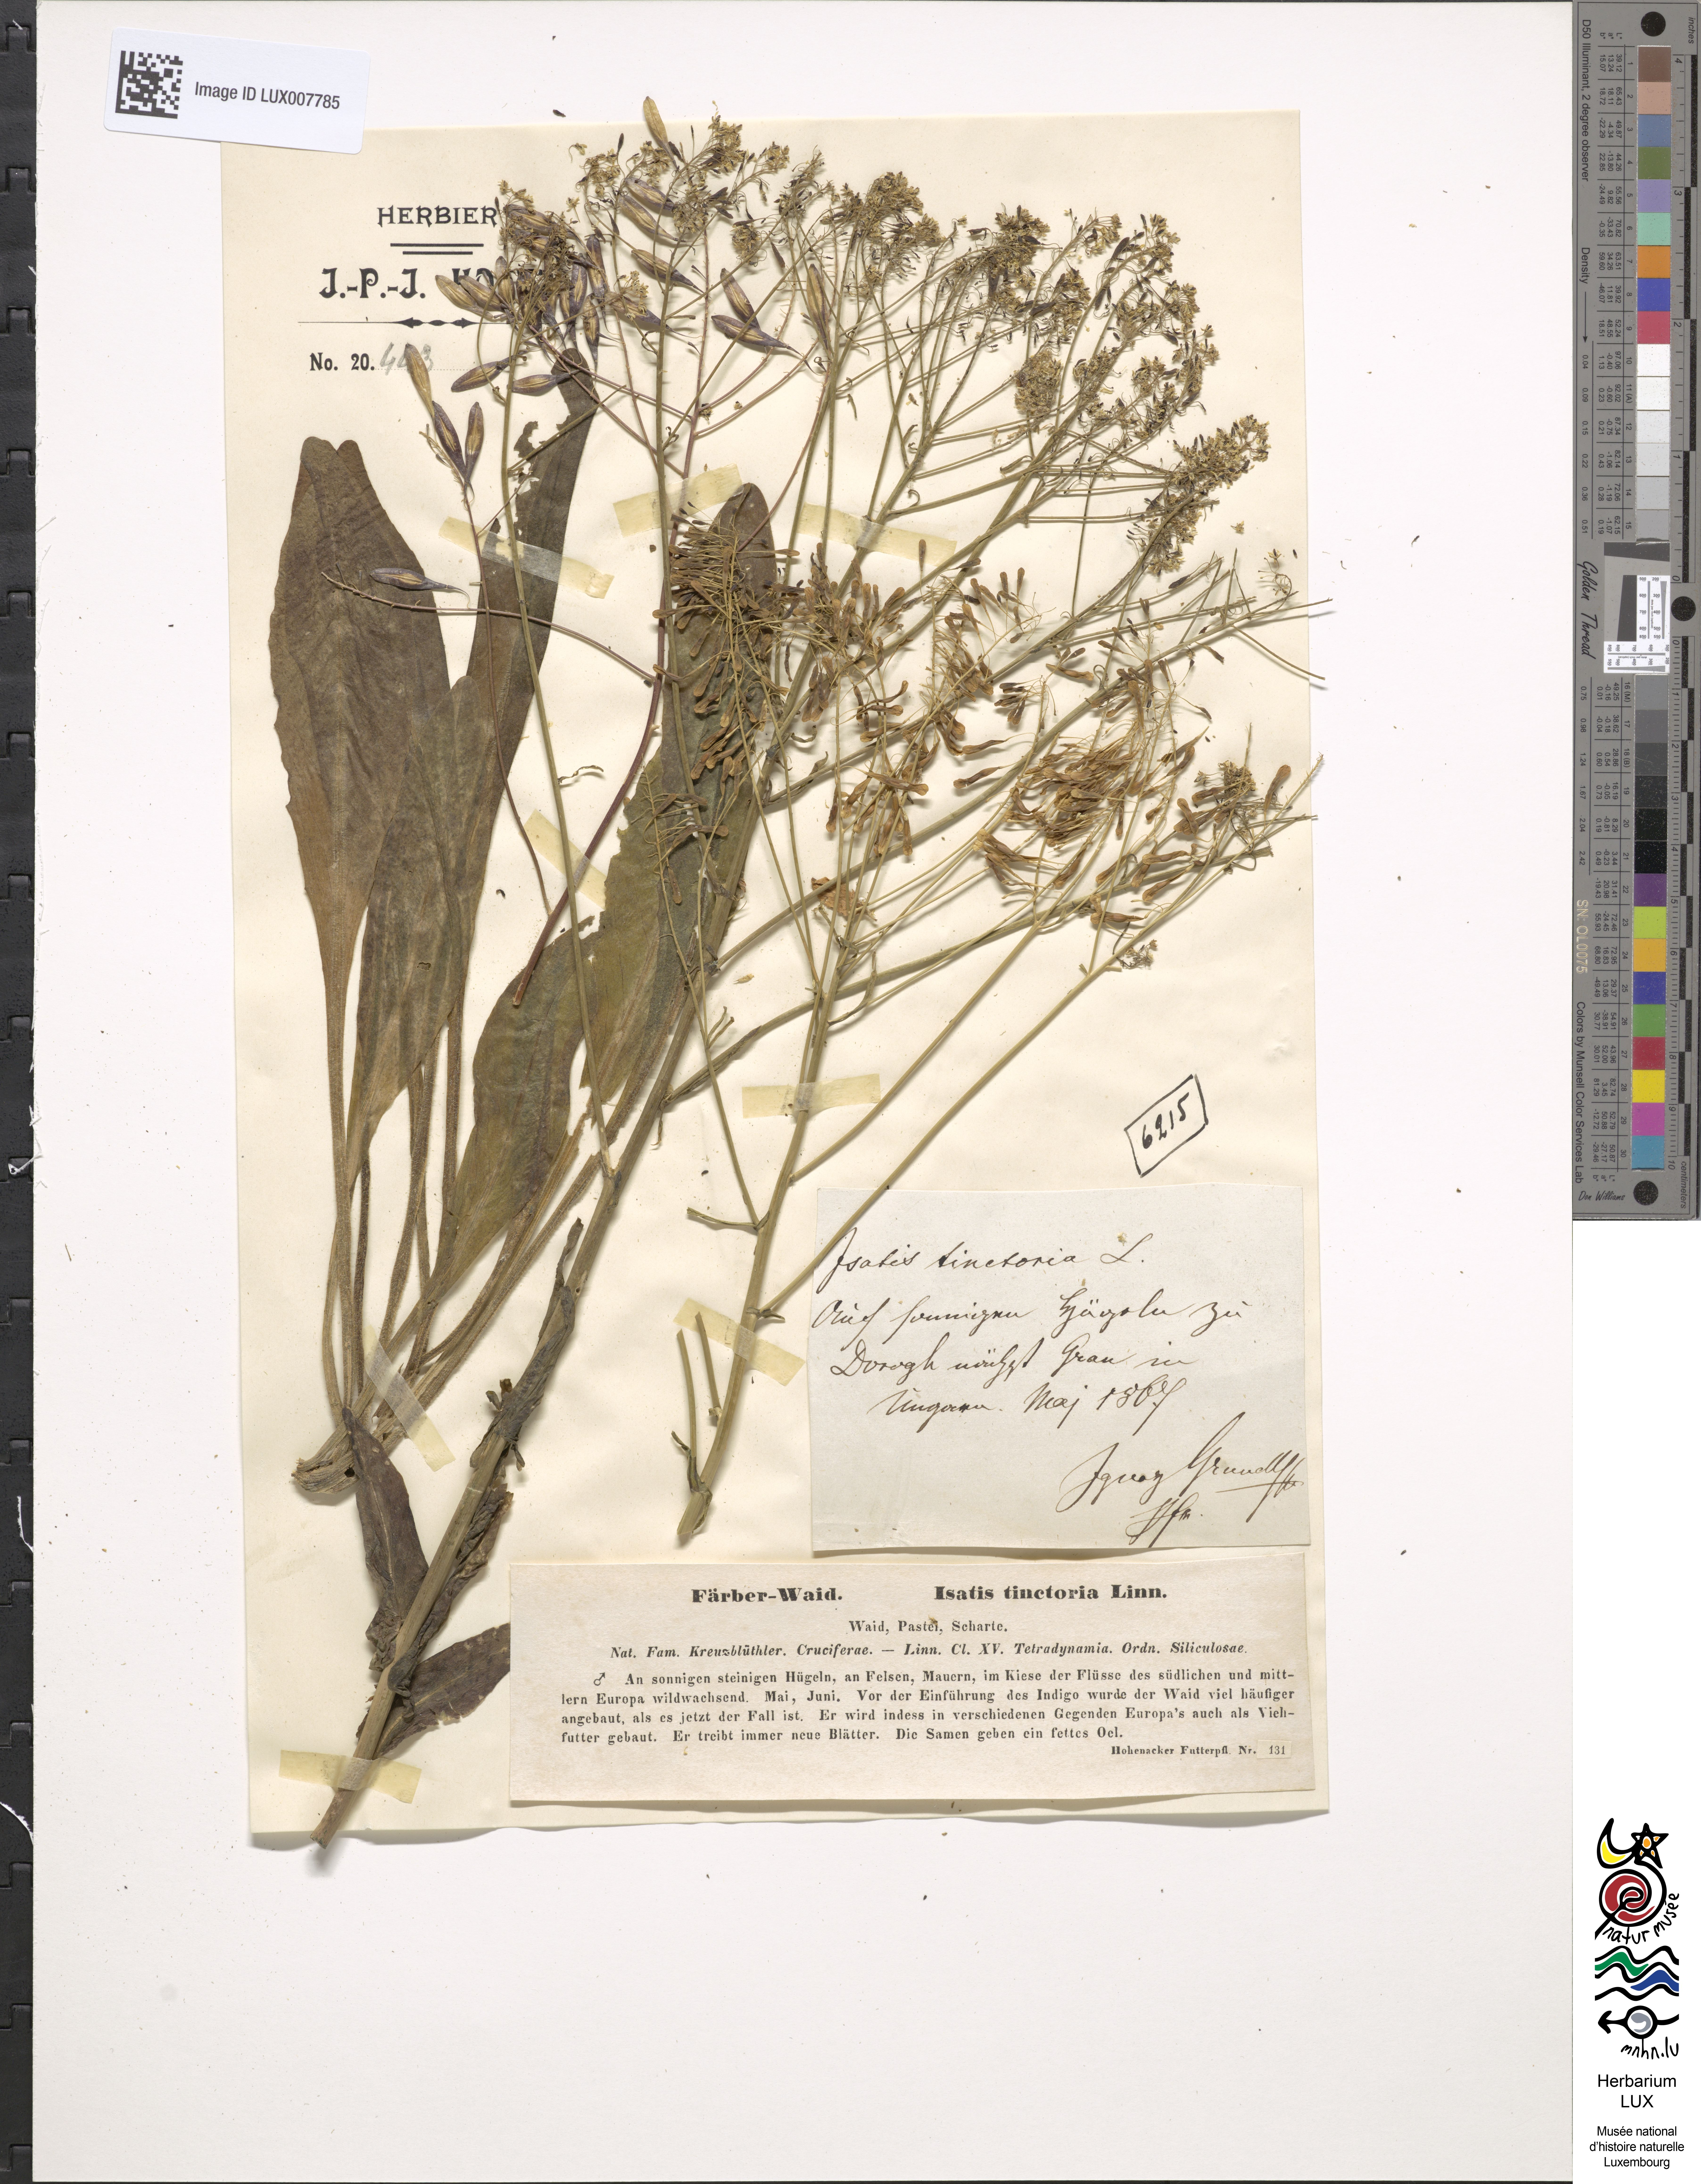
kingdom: Plantae
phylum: Tracheophyta
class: Magnoliopsida
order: Brassicales
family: Brassicaceae
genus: Isatis
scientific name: Isatis tinctoria
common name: Woad
